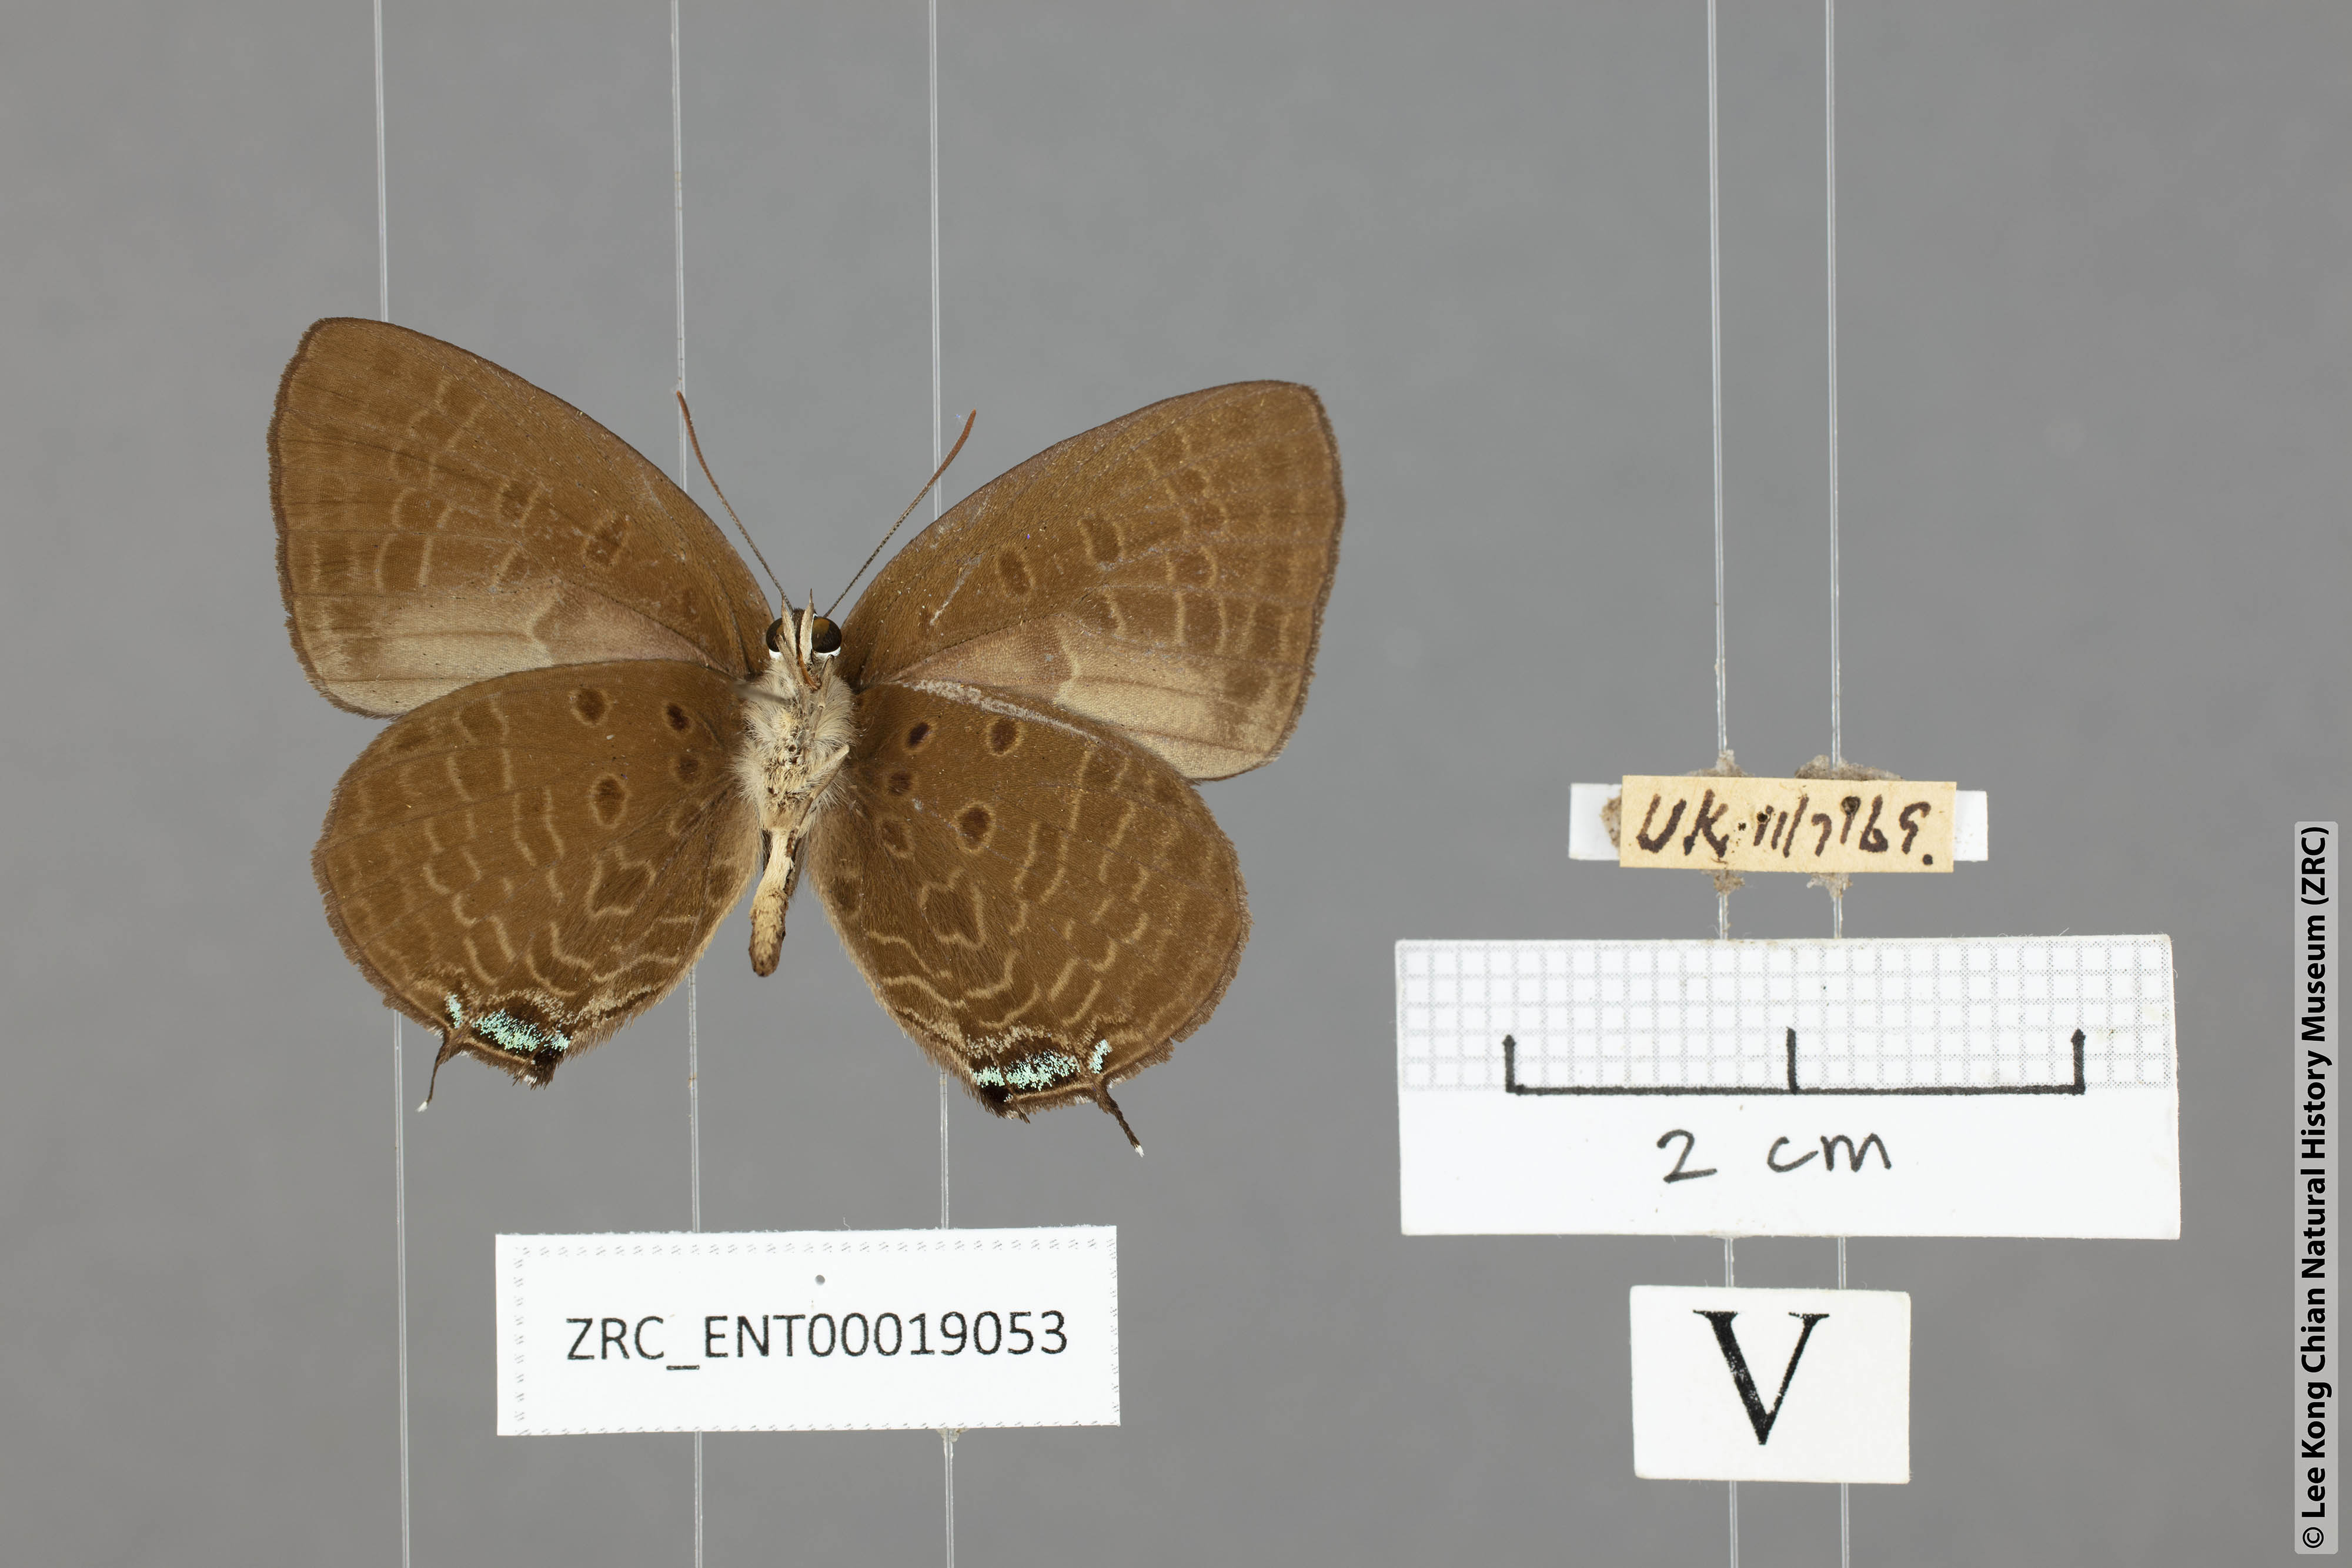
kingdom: Animalia
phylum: Arthropoda
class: Insecta
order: Lepidoptera
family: Lycaenidae
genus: Arhopala
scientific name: Arhopala agrata
